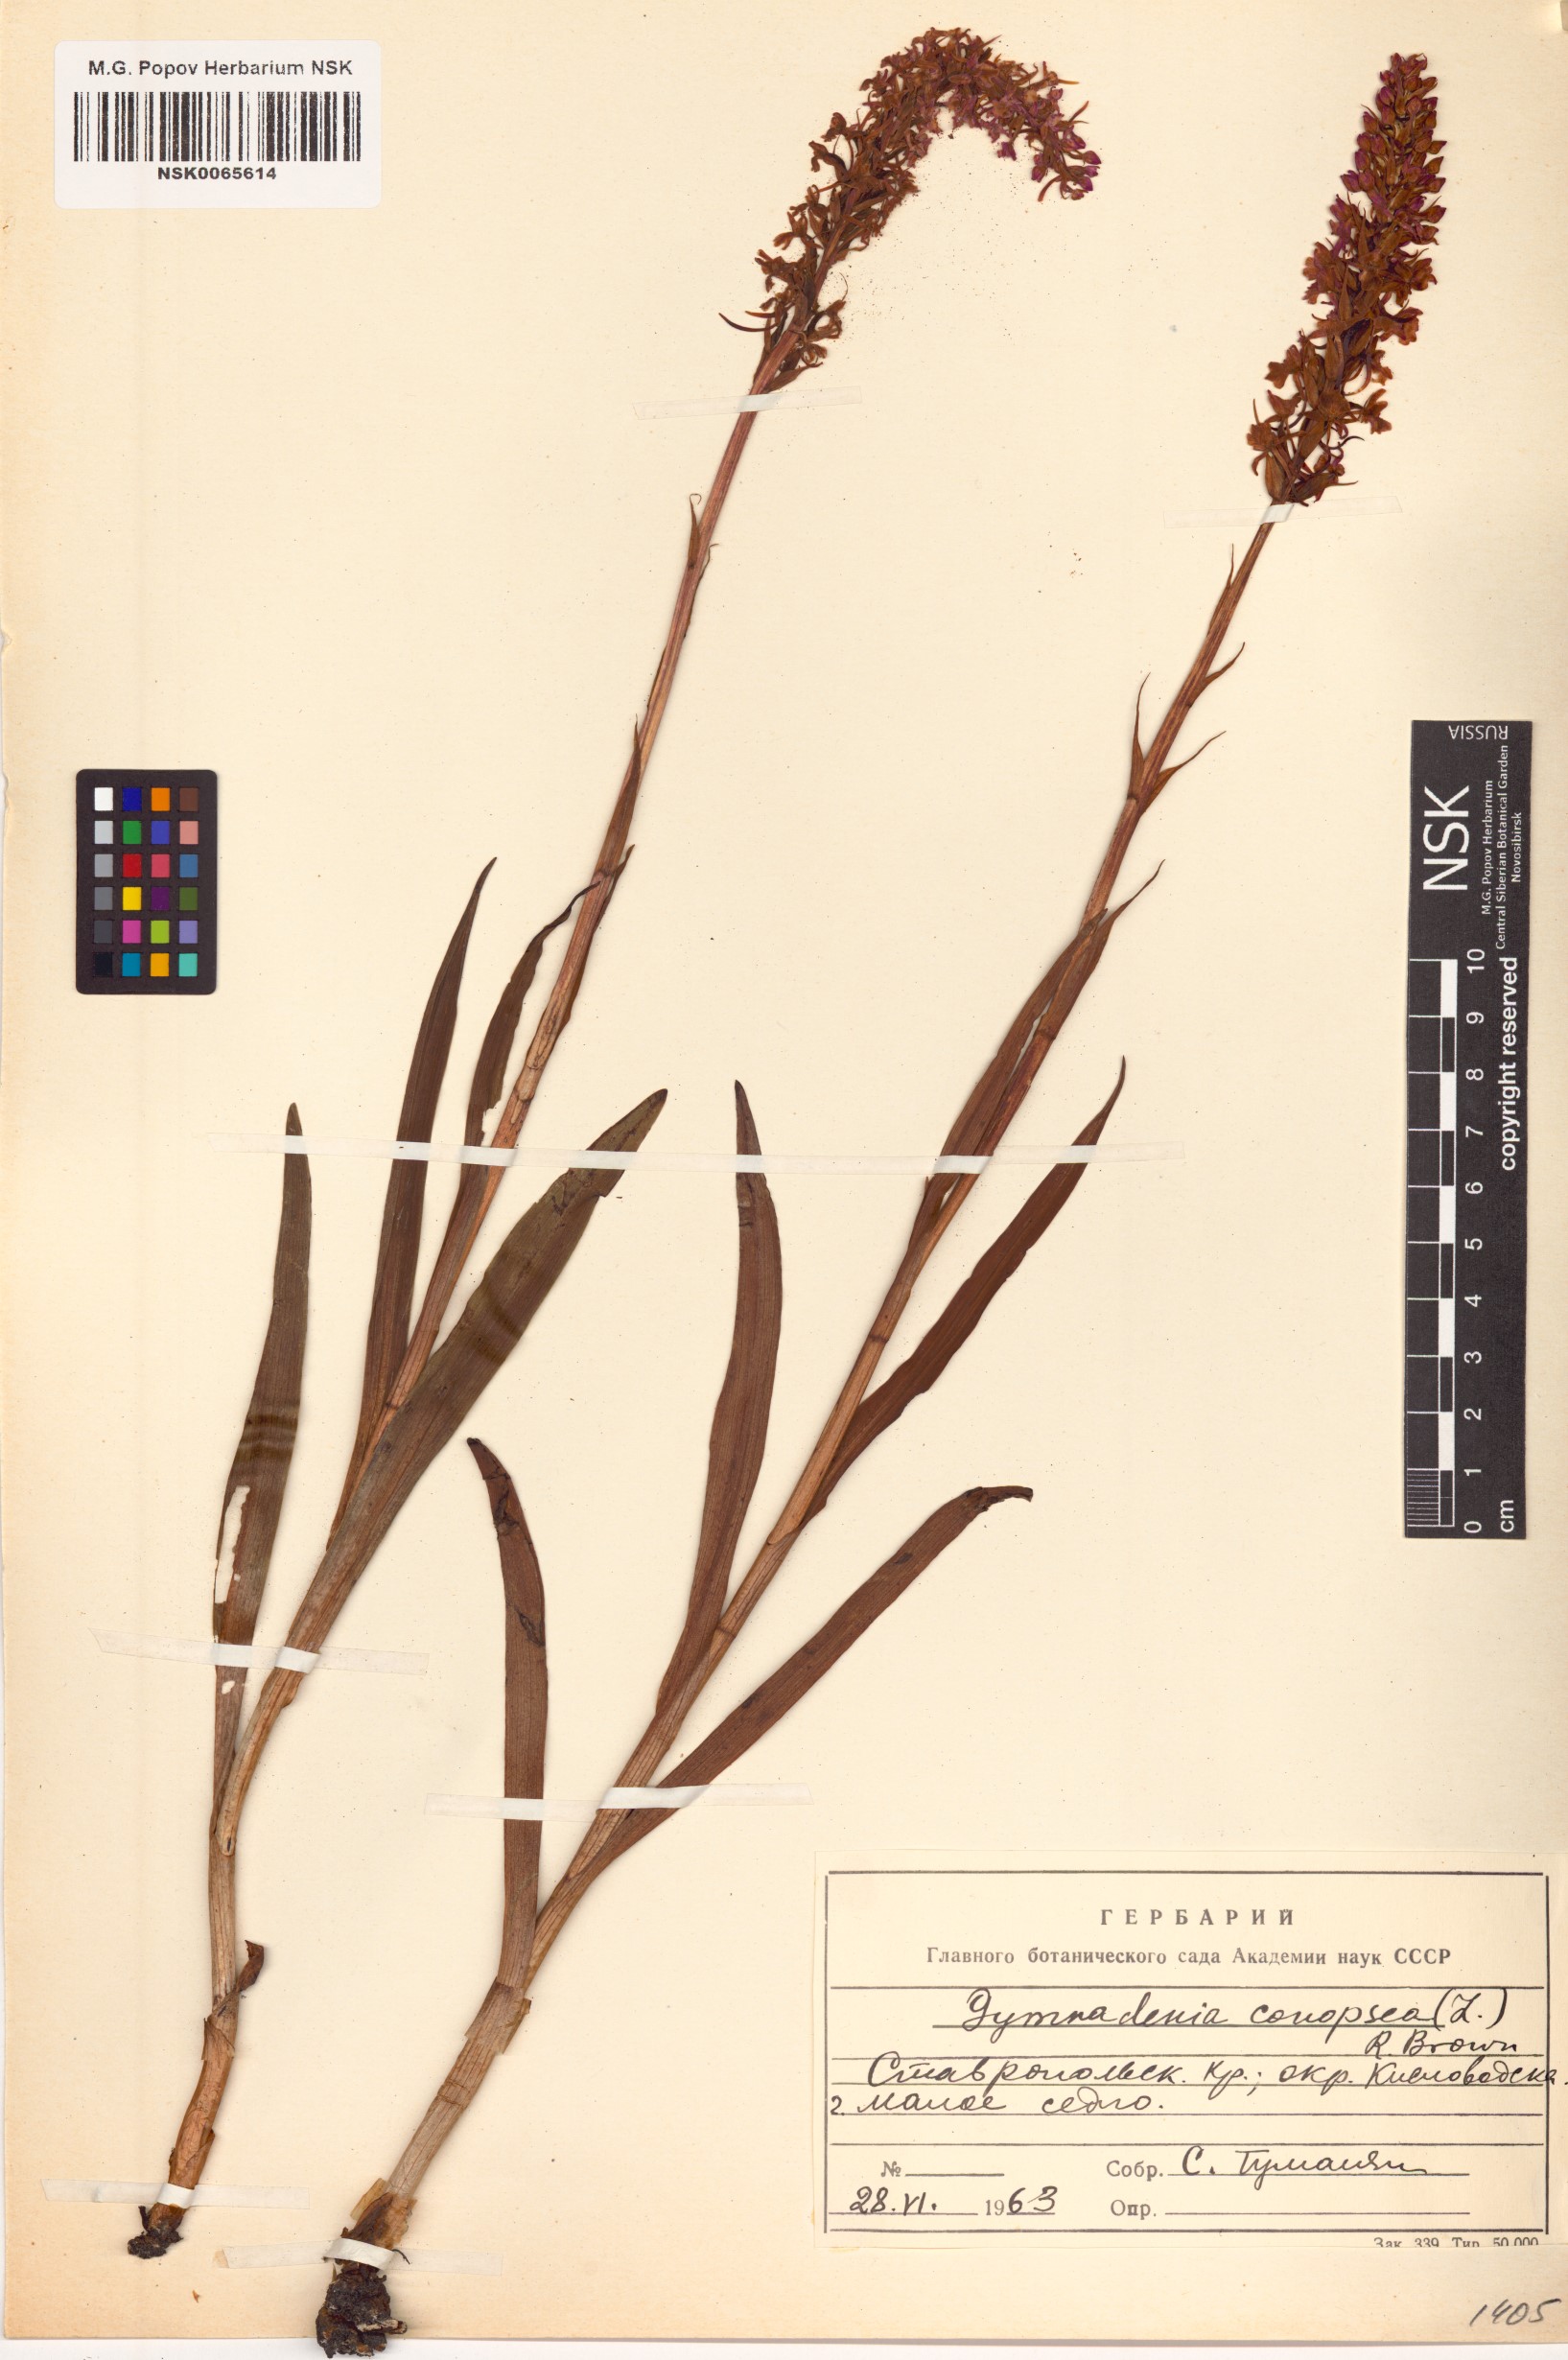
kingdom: Plantae
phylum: Tracheophyta
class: Liliopsida
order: Asparagales
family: Orchidaceae
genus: Gymnadenia
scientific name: Gymnadenia conopsea
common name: Fragrant orchid
